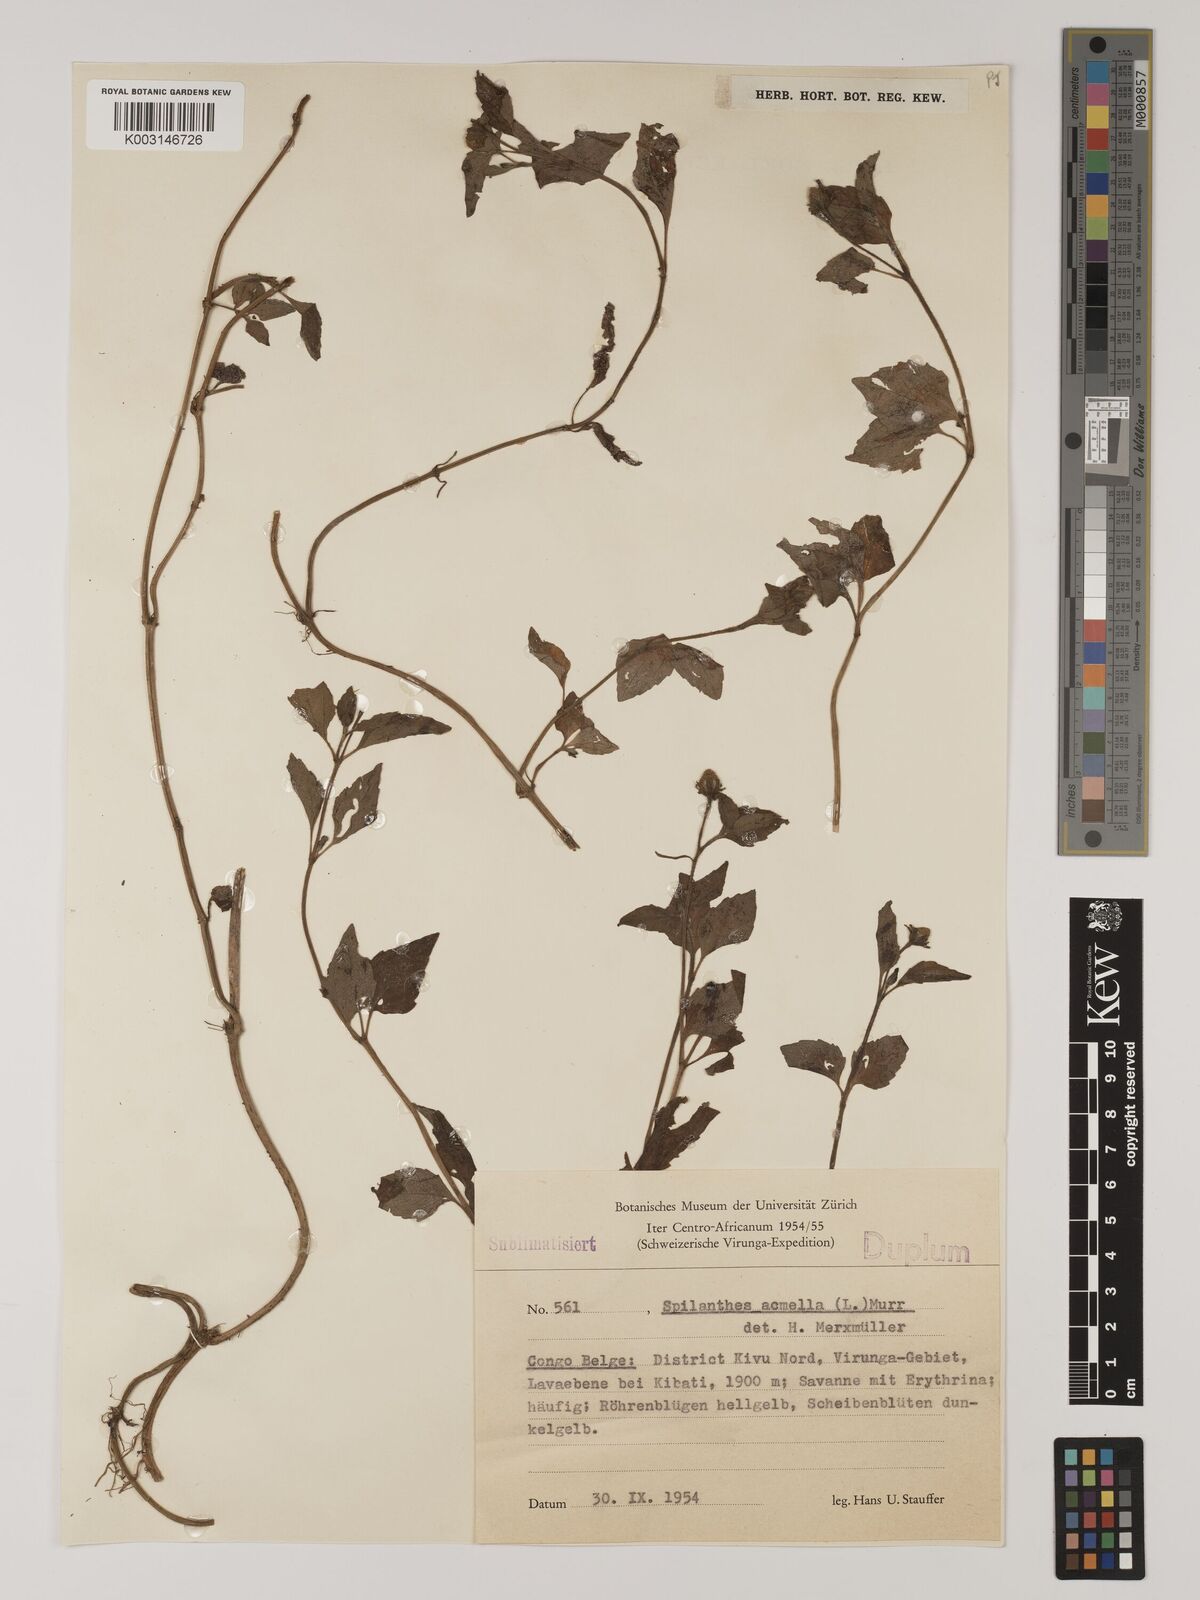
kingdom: Plantae
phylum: Tracheophyta
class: Magnoliopsida
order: Asterales
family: Asteraceae
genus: Blainvillea
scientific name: Blainvillea acmella
